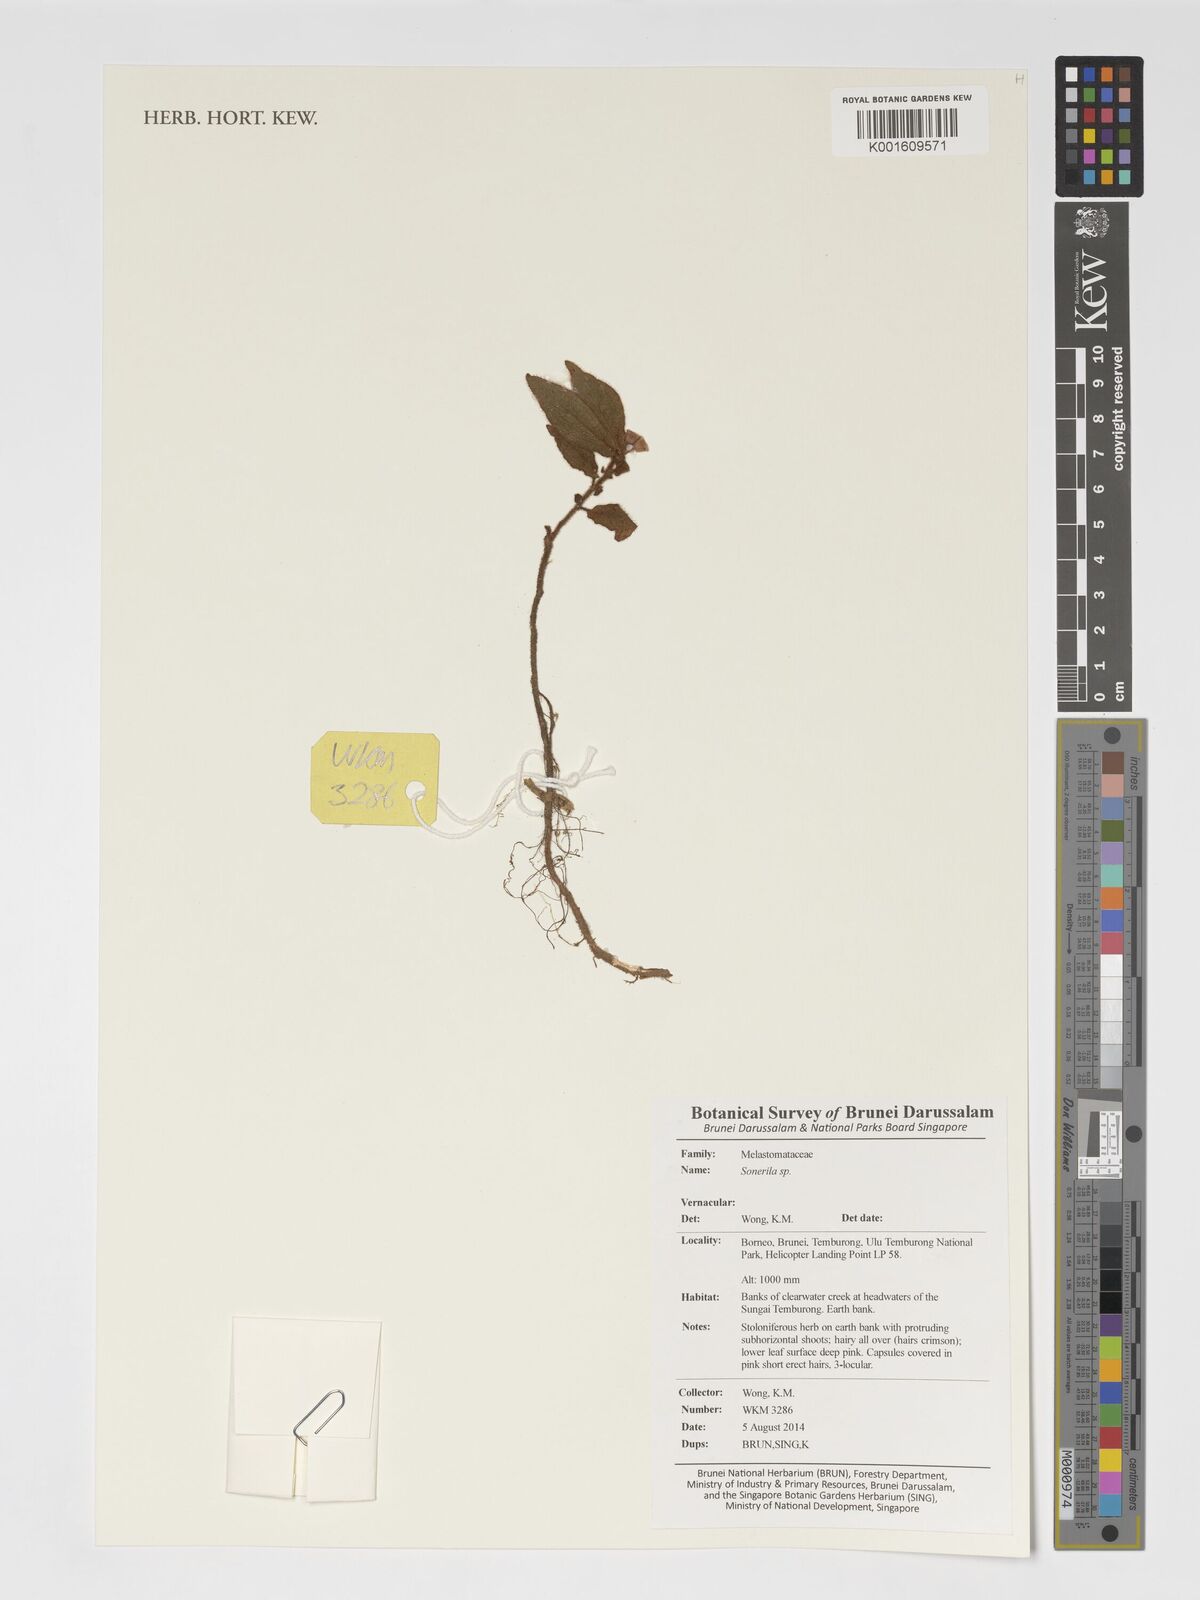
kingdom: Plantae
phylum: Tracheophyta
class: Magnoliopsida
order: Myrtales
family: Melastomataceae
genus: Sonerila
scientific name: Sonerila
